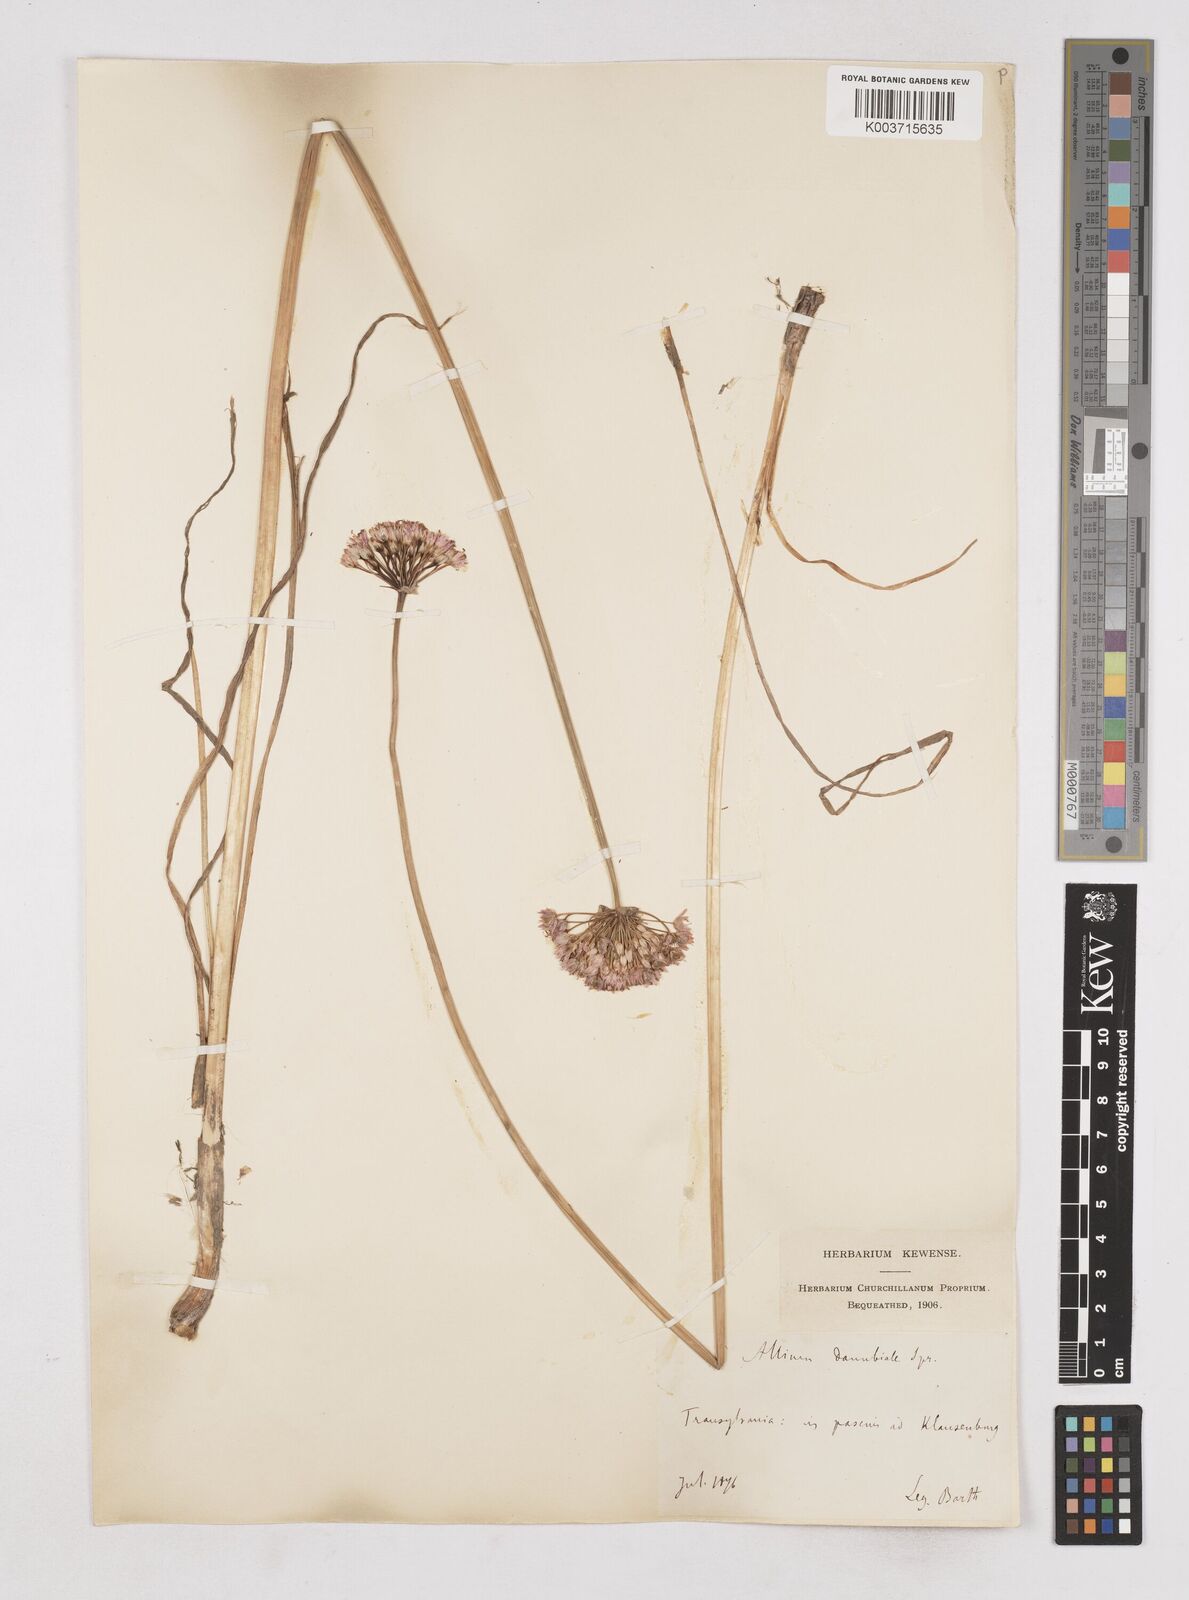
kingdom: Plantae
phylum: Tracheophyta
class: Liliopsida
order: Asparagales
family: Amaryllidaceae
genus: Allium
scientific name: Allium angulosum
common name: Mouse garlic
